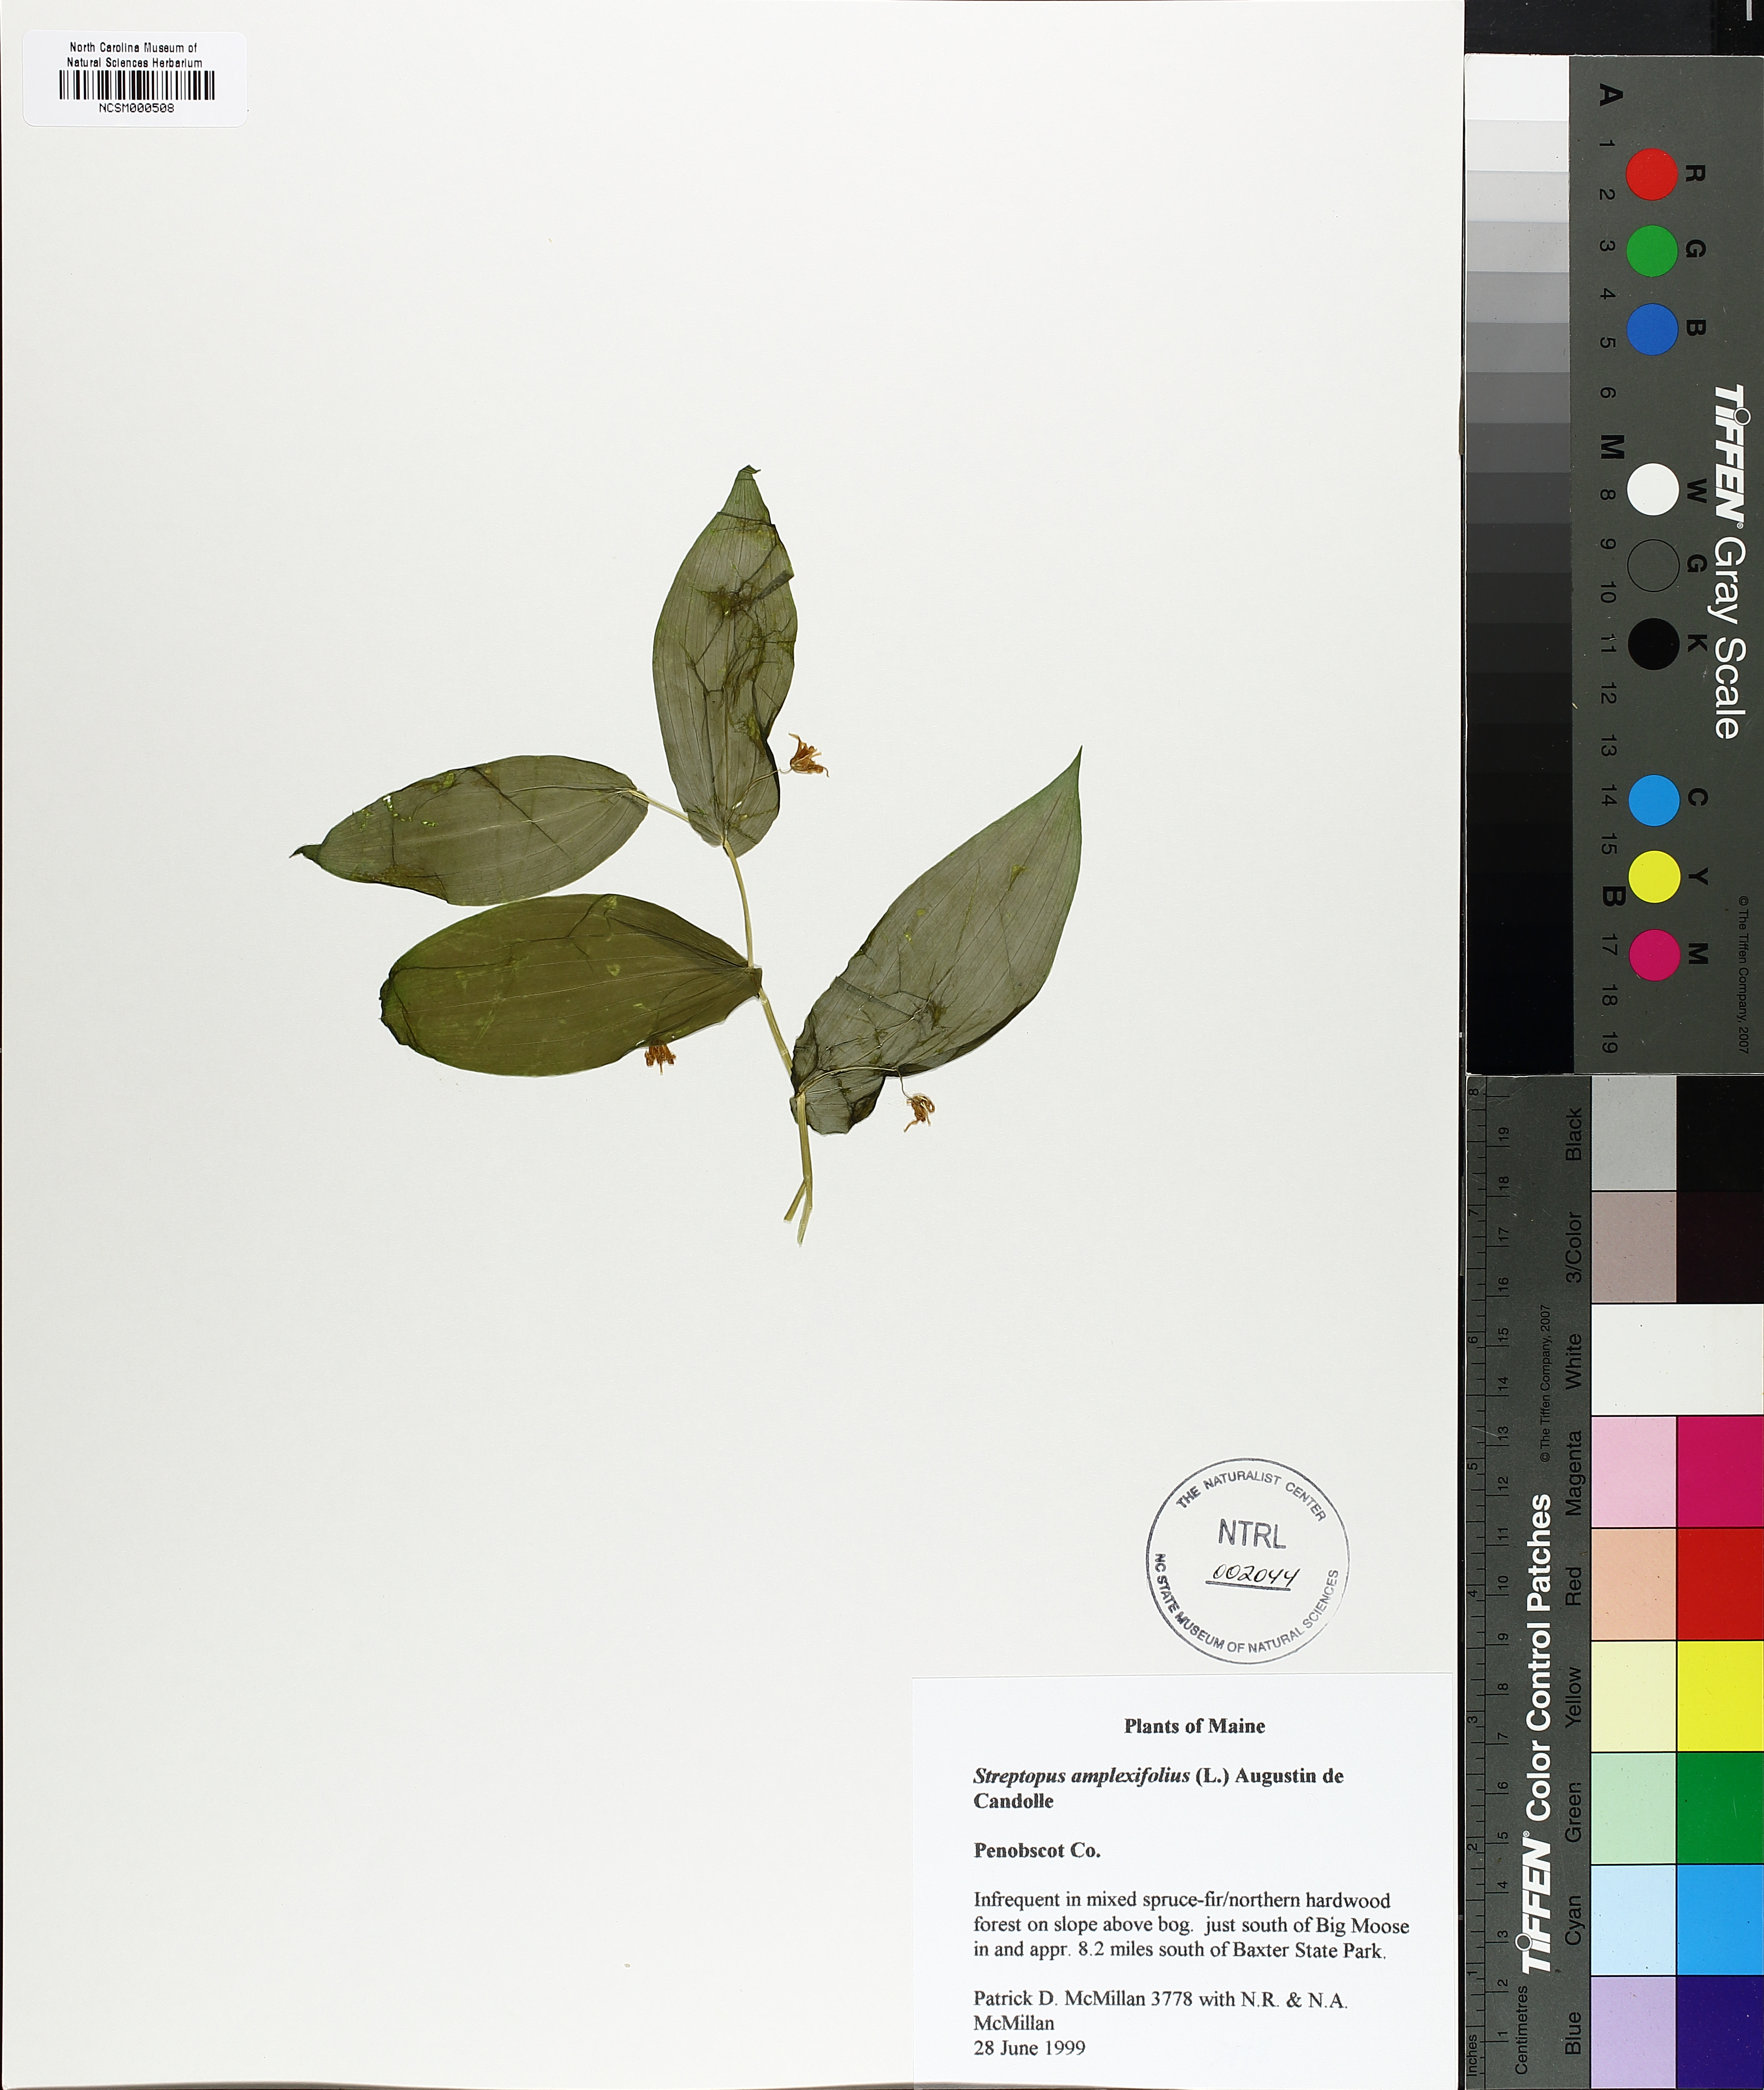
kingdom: Plantae
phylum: Tracheophyta
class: Liliopsida
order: Liliales
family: Liliaceae
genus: Streptopus
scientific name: Streptopus amplexifolius
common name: Clasp twisted stalk
